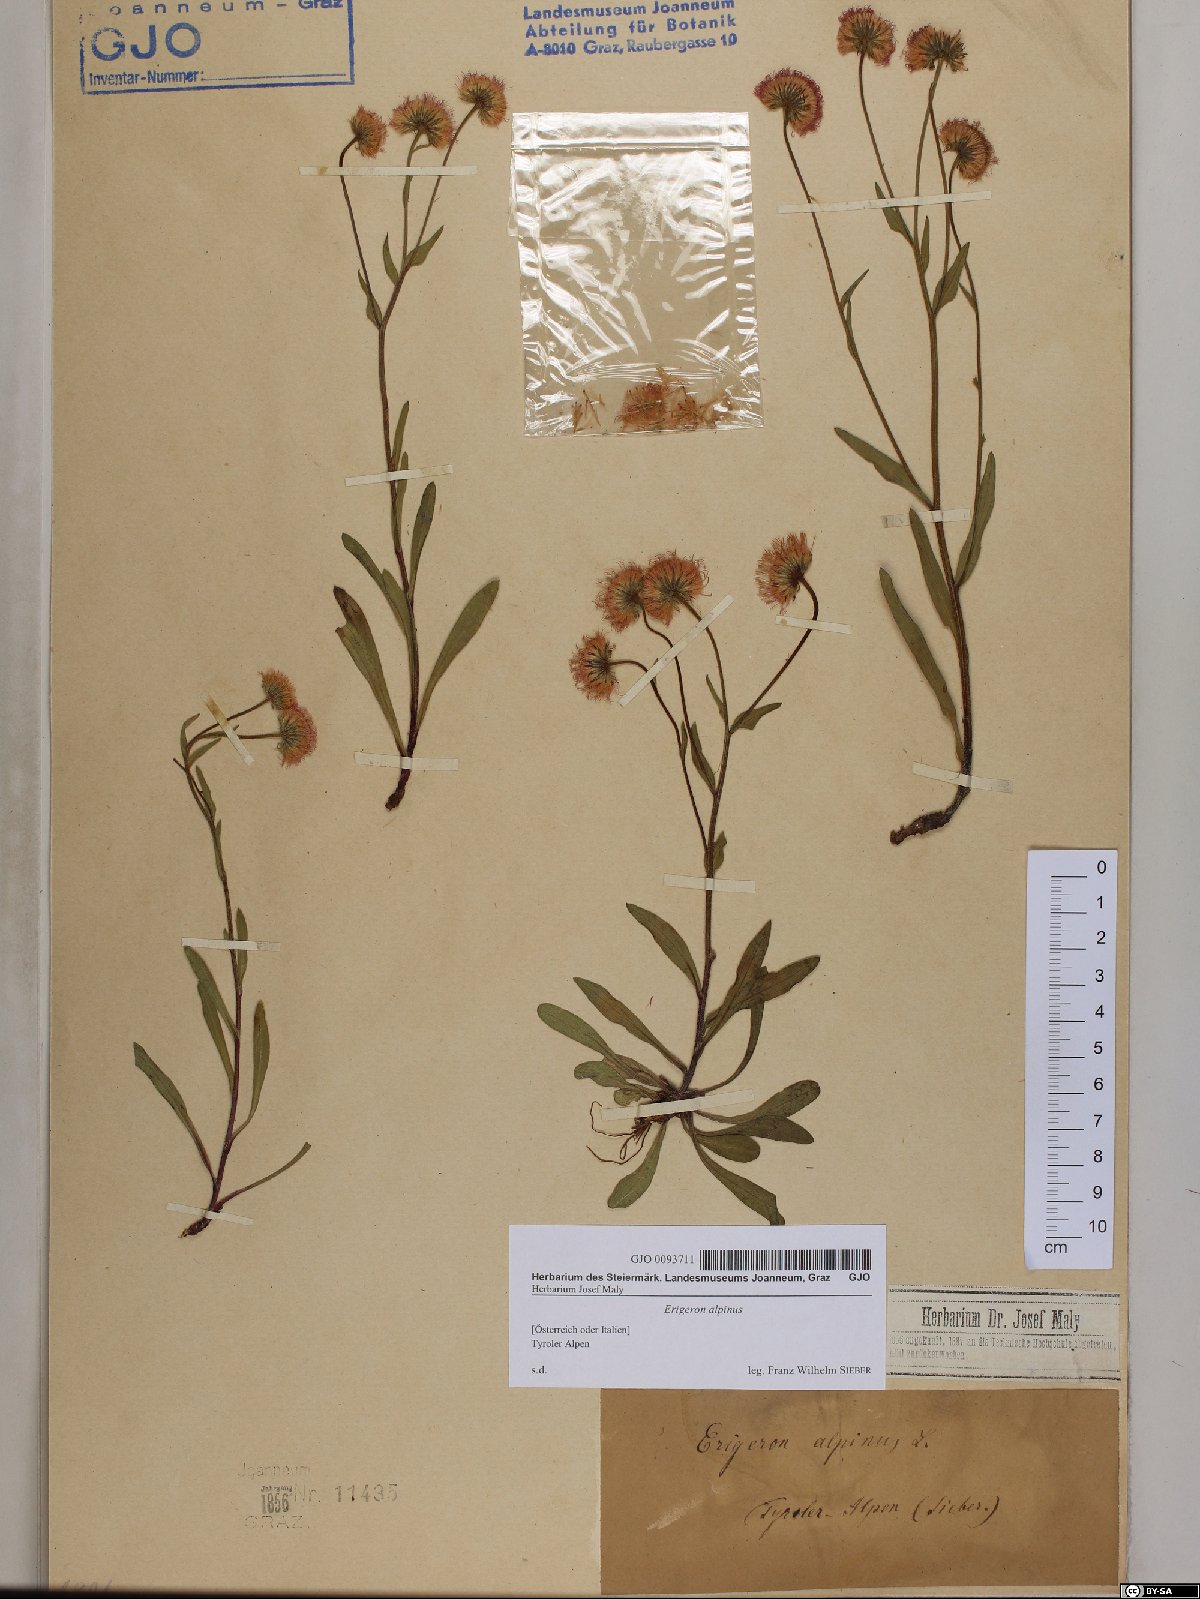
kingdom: Plantae
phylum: Tracheophyta
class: Magnoliopsida
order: Asterales
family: Asteraceae
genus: Erigeron
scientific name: Erigeron alpinus
